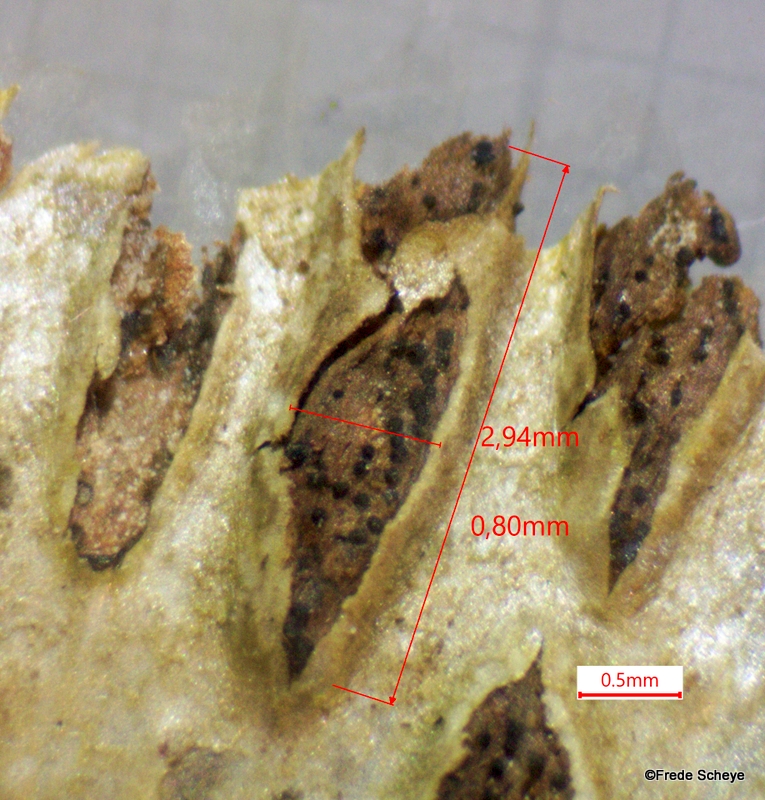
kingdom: Fungi
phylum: Ascomycota
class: Sordariomycetes
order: Diaporthales
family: Sydowiellaceae
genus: Sillia
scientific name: Sillia ferruginea
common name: hasselhals
